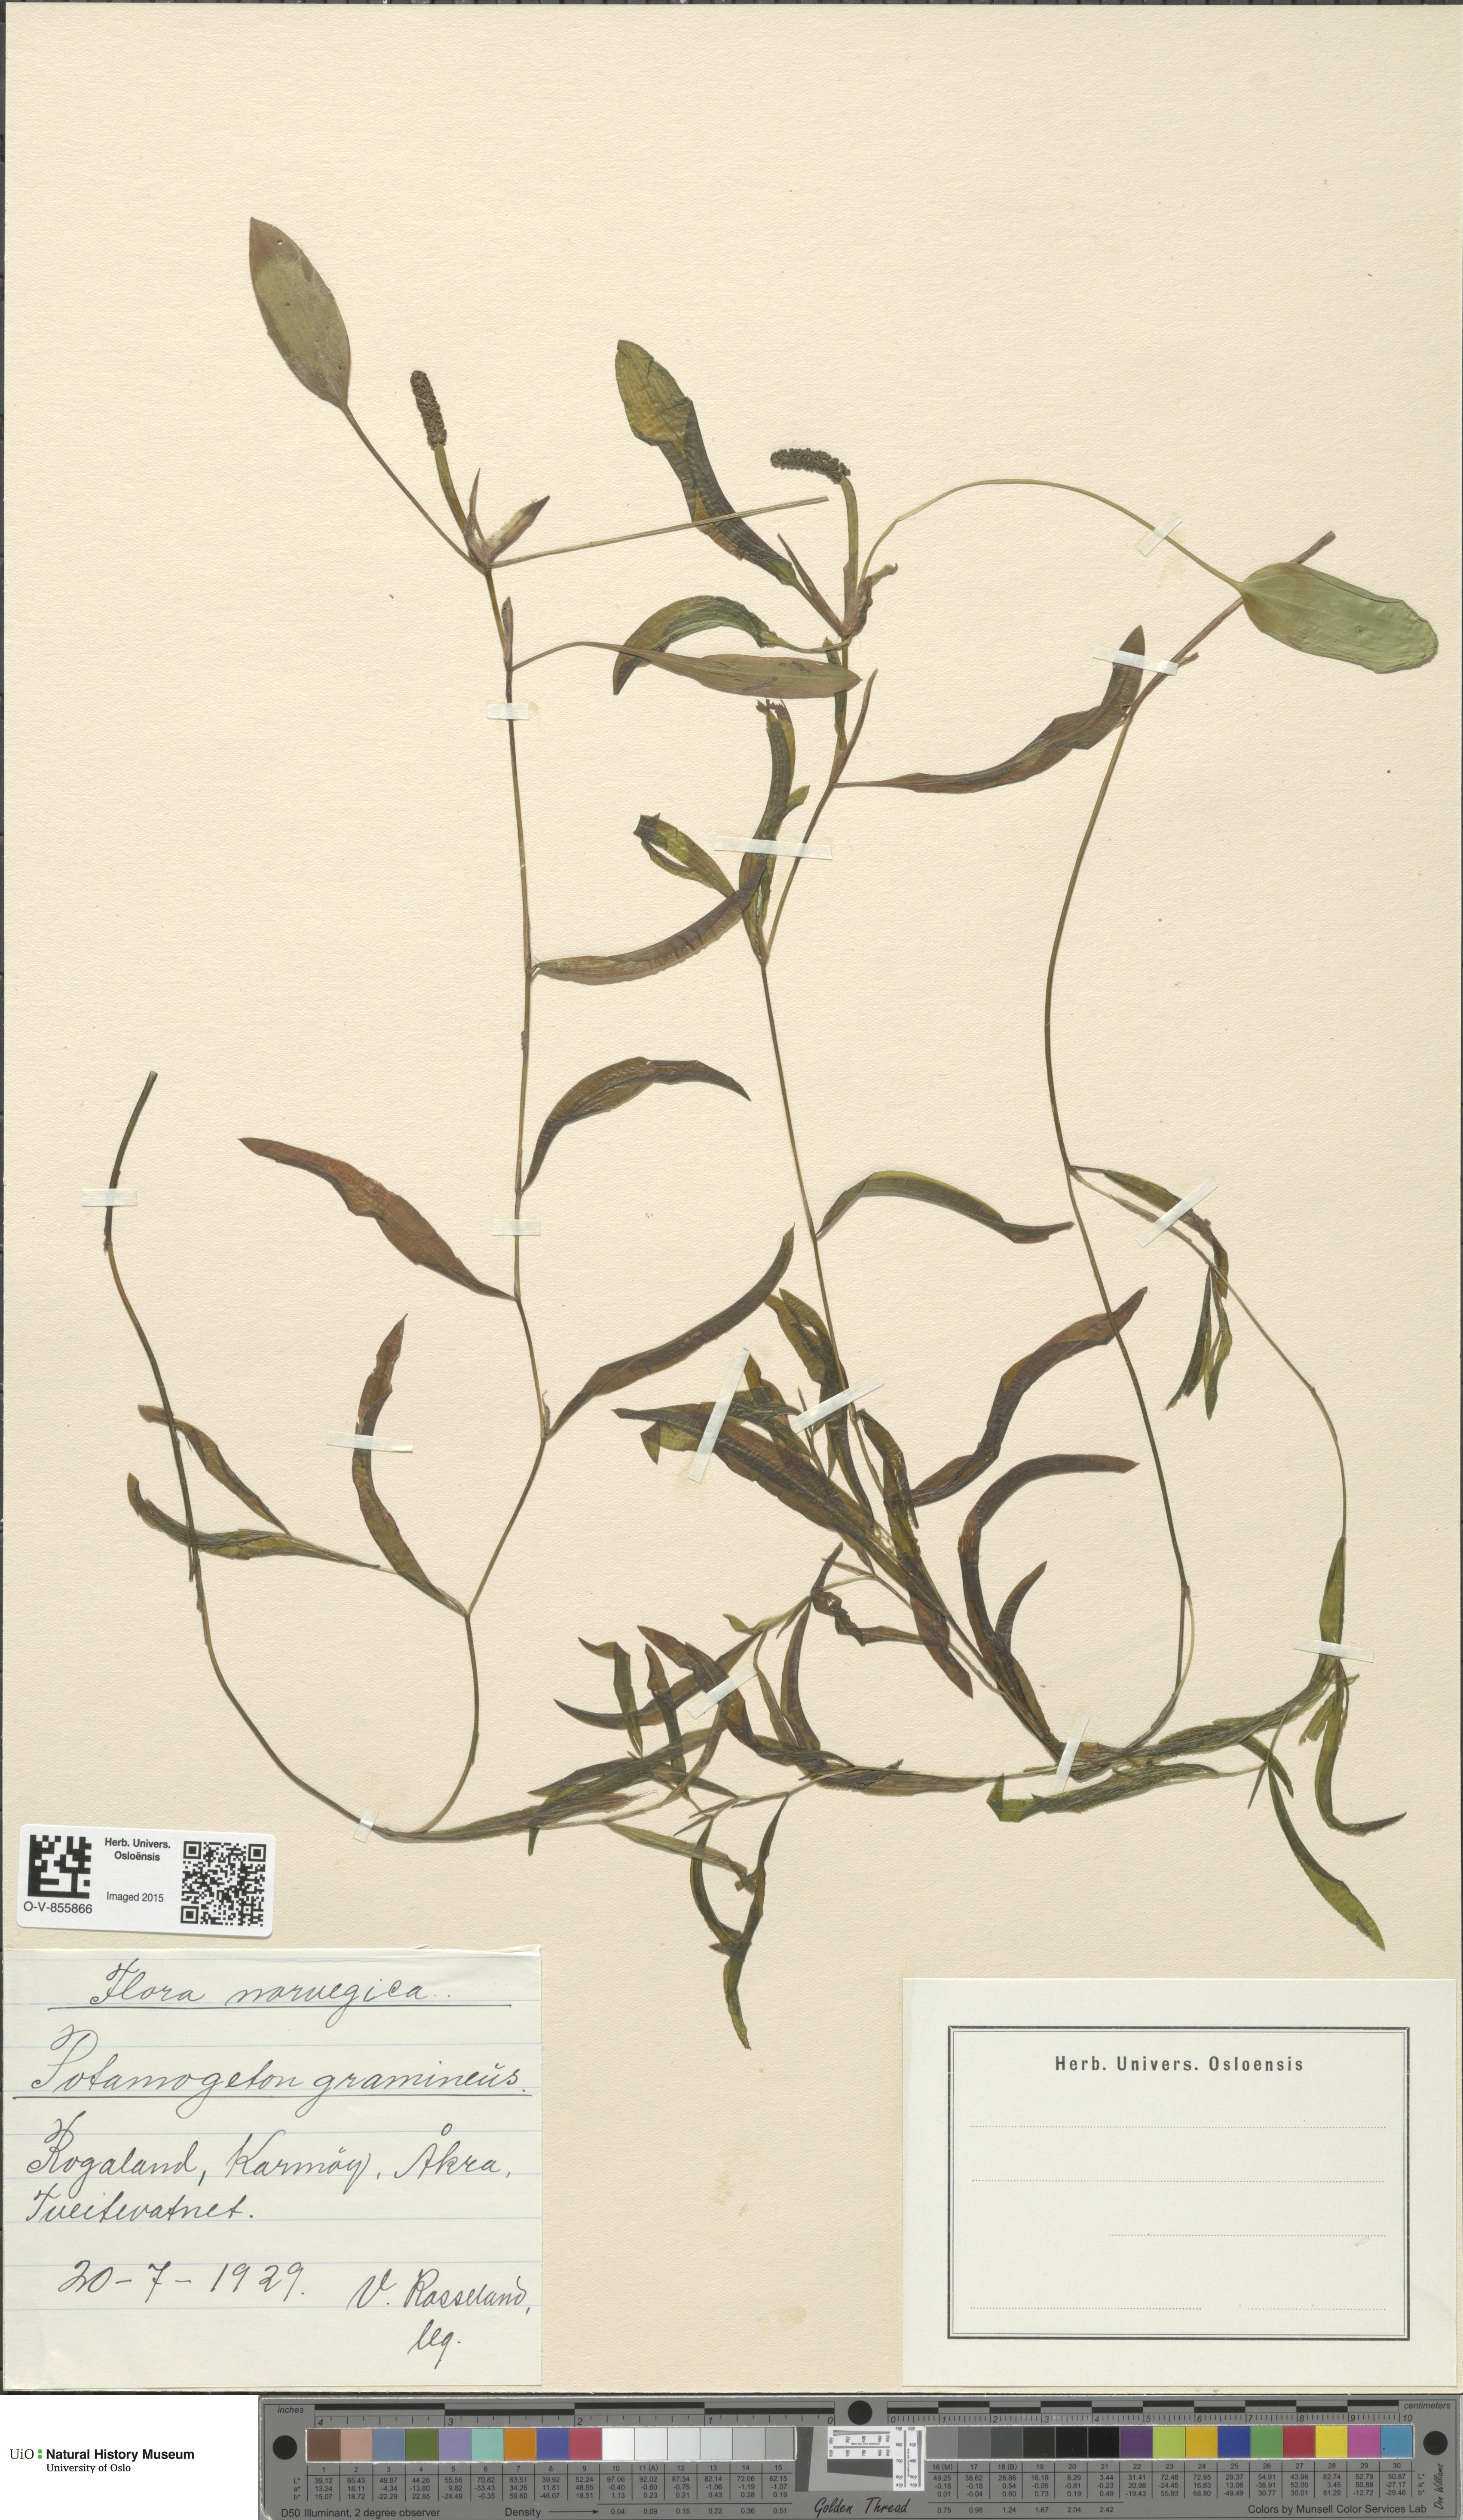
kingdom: Plantae
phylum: Tracheophyta
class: Liliopsida
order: Alismatales
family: Potamogetonaceae
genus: Potamogeton
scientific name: Potamogeton gramineus
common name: Various-leaved pondweed
